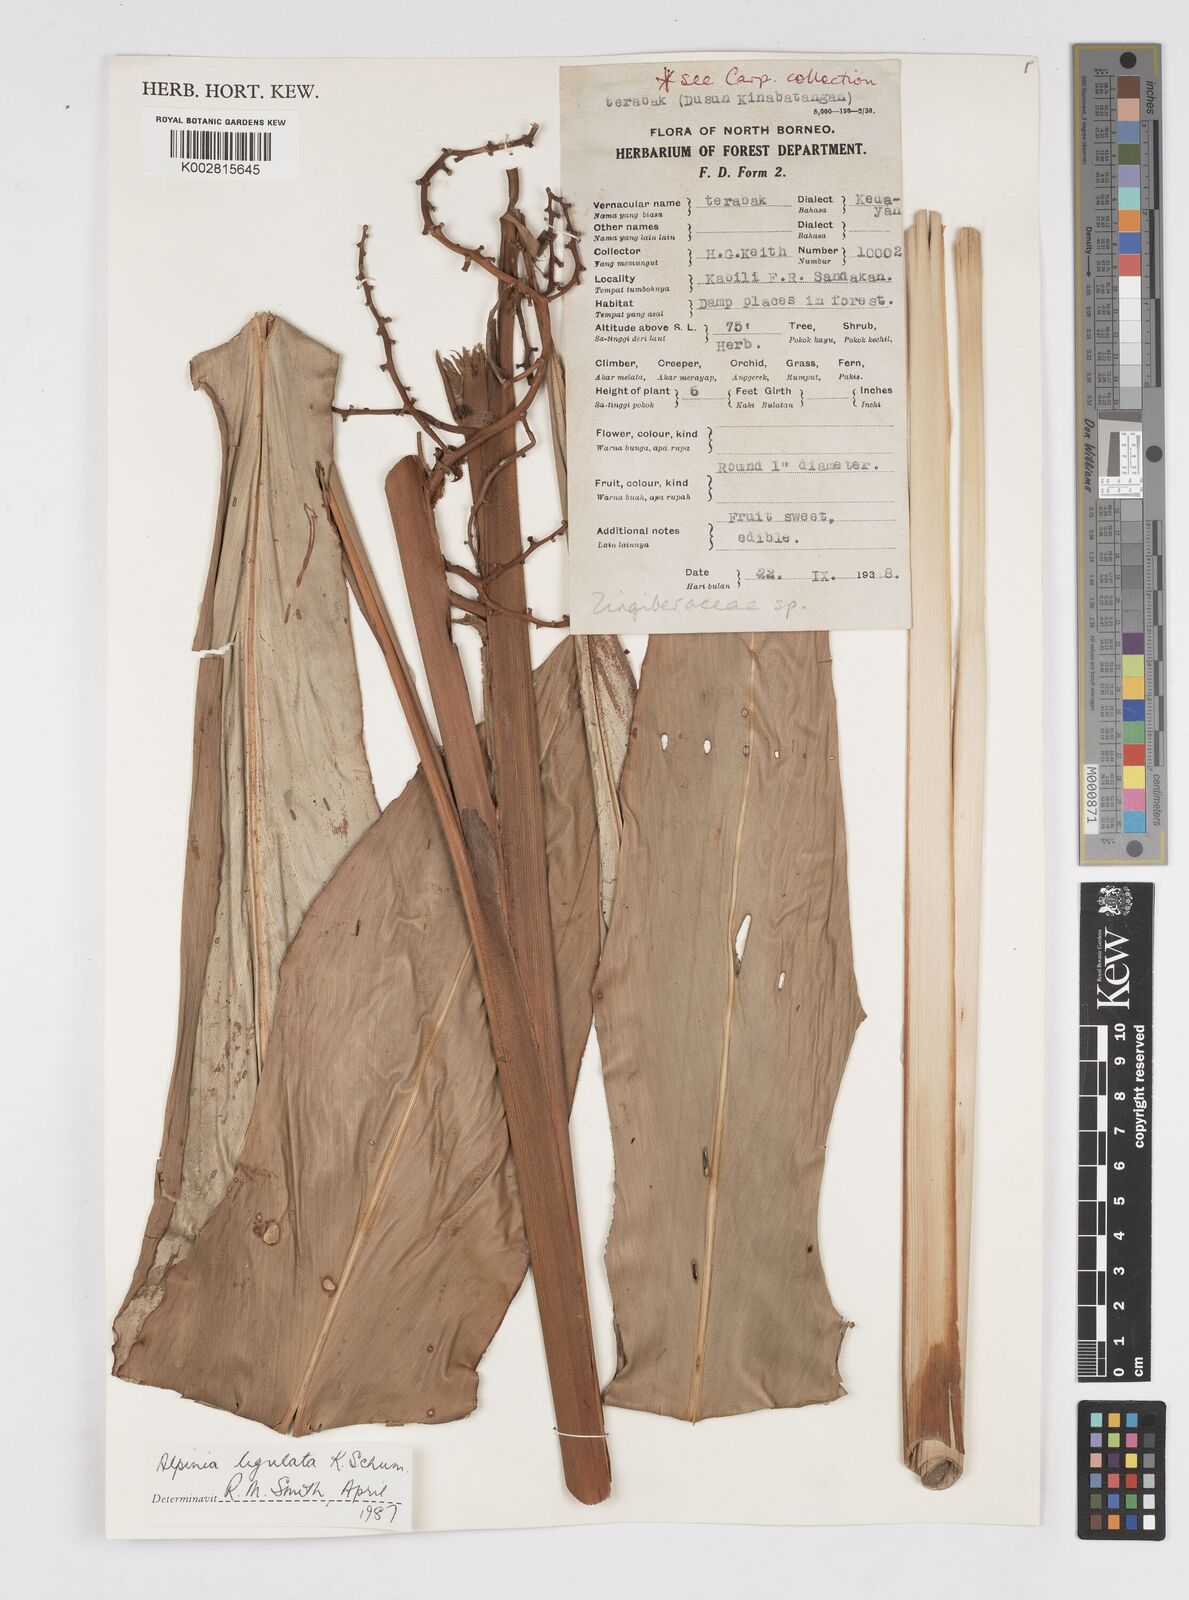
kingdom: Plantae
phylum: Tracheophyta
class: Liliopsida
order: Zingiberales
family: Zingiberaceae
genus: Alpinia
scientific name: Alpinia ligulata
